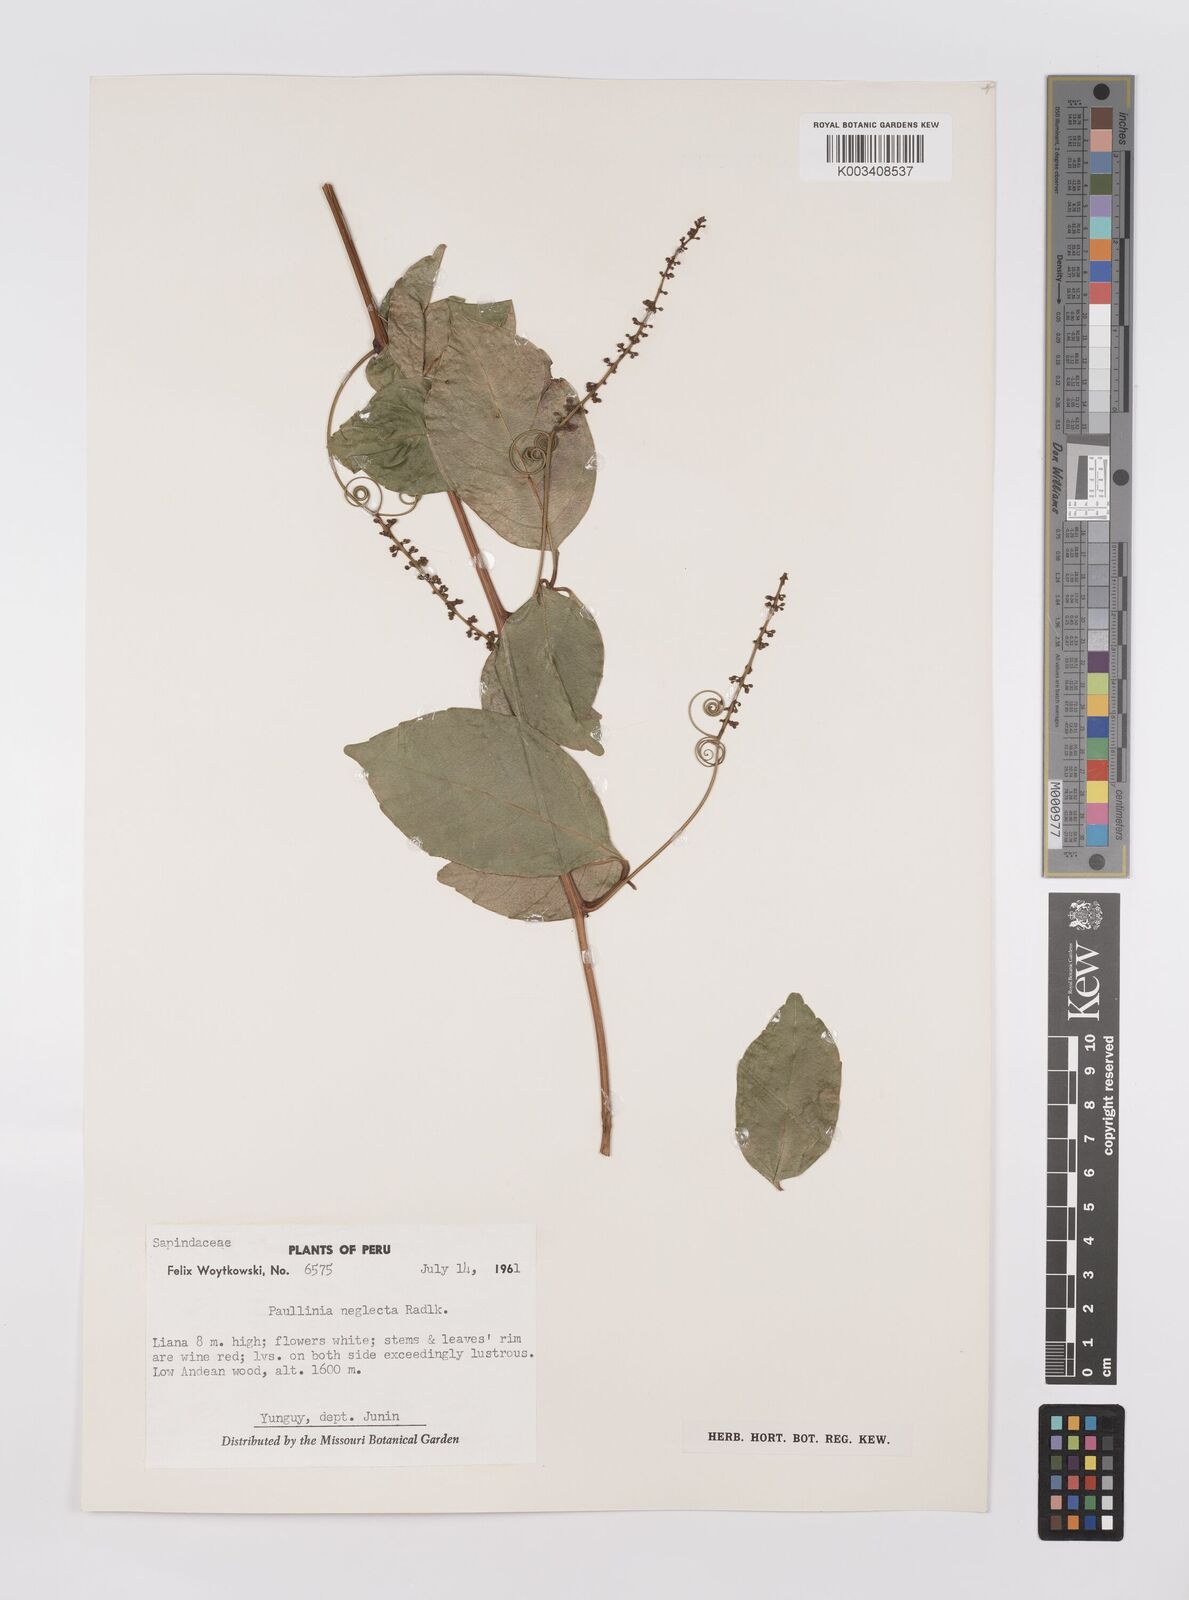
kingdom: Plantae
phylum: Tracheophyta
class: Magnoliopsida
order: Sapindales
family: Sapindaceae
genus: Paullinia
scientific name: Paullinia elegans
